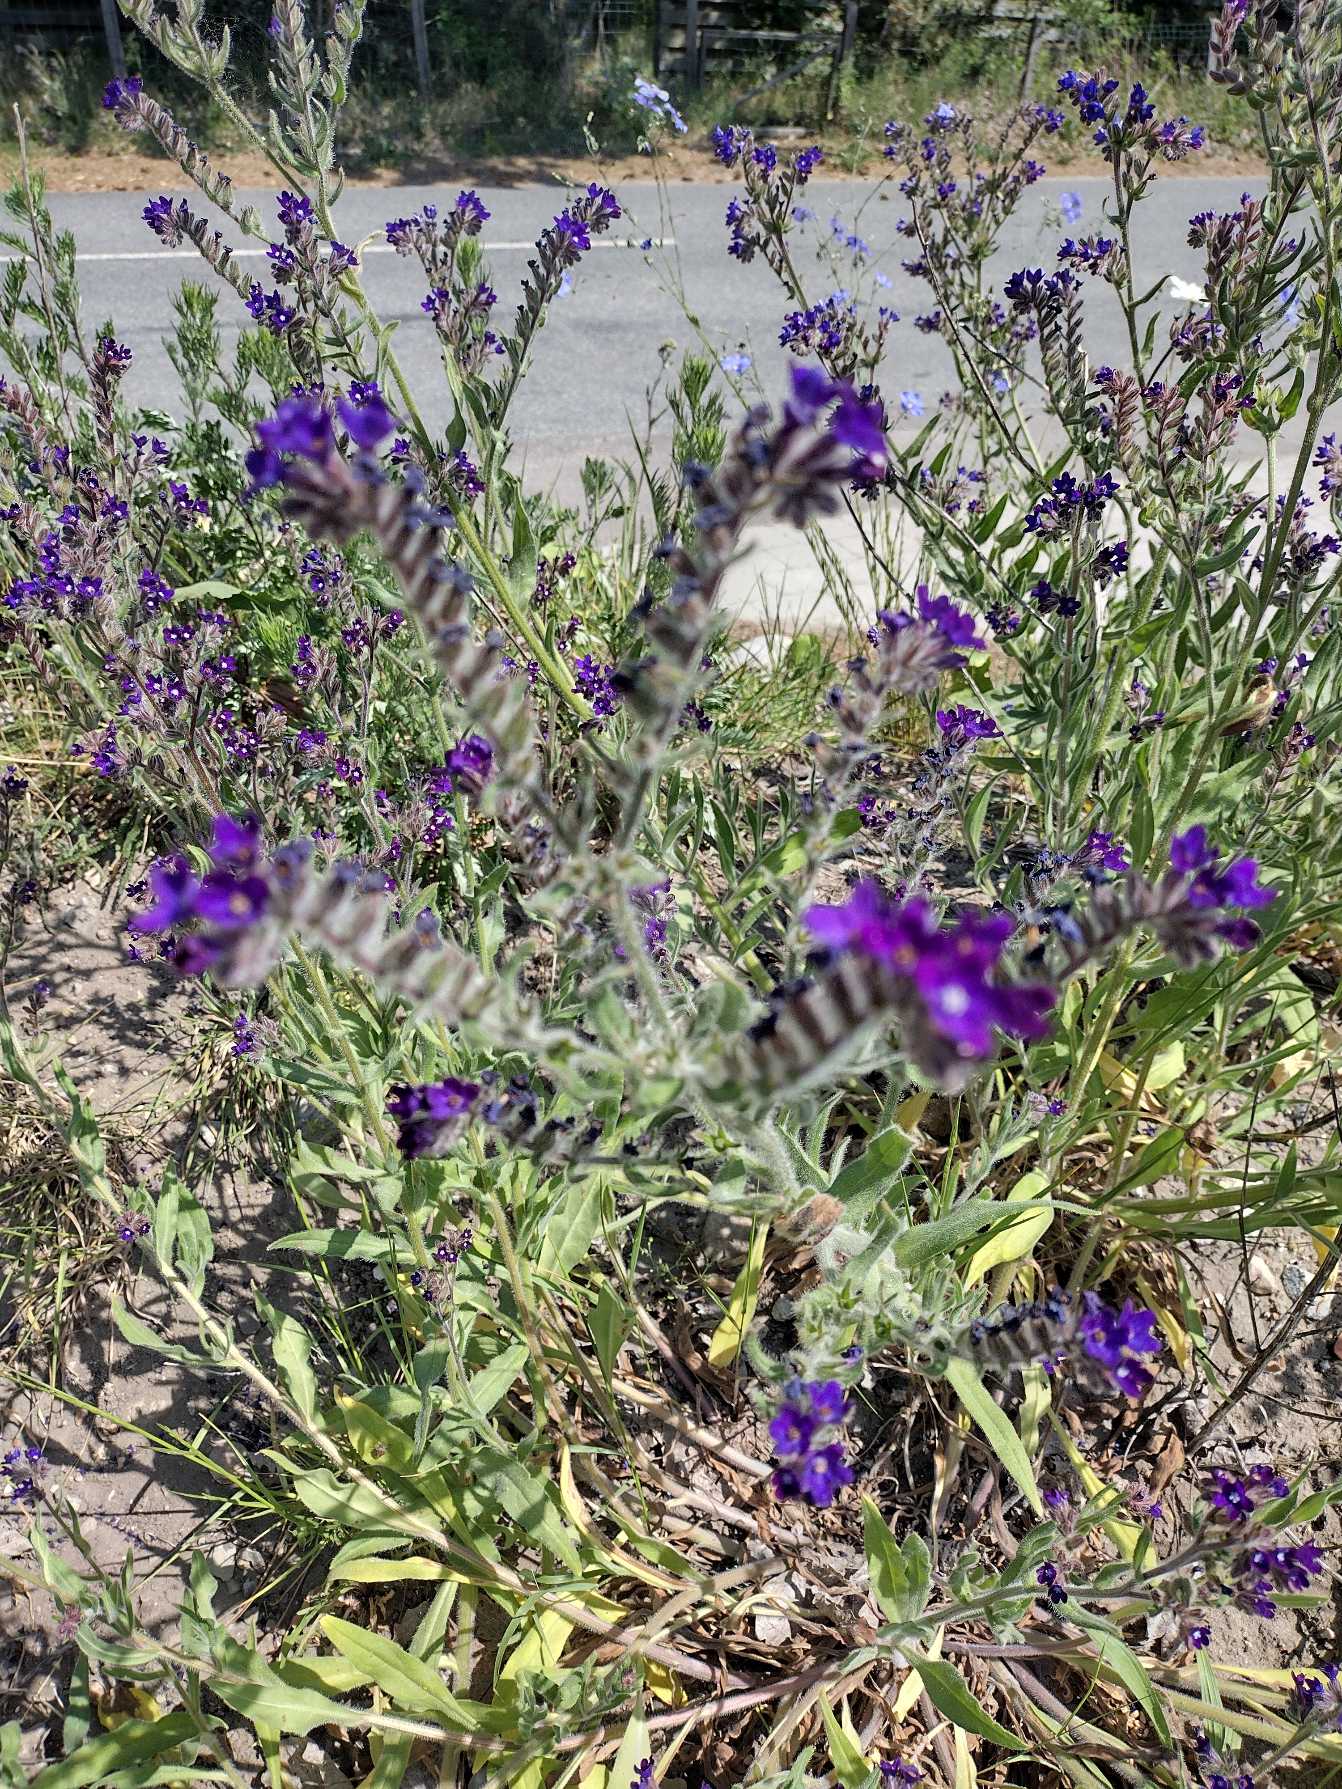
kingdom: Plantae
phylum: Tracheophyta
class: Magnoliopsida
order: Boraginales
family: Boraginaceae
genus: Anchusa
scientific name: Anchusa officinalis
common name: Læge-oksetunge
